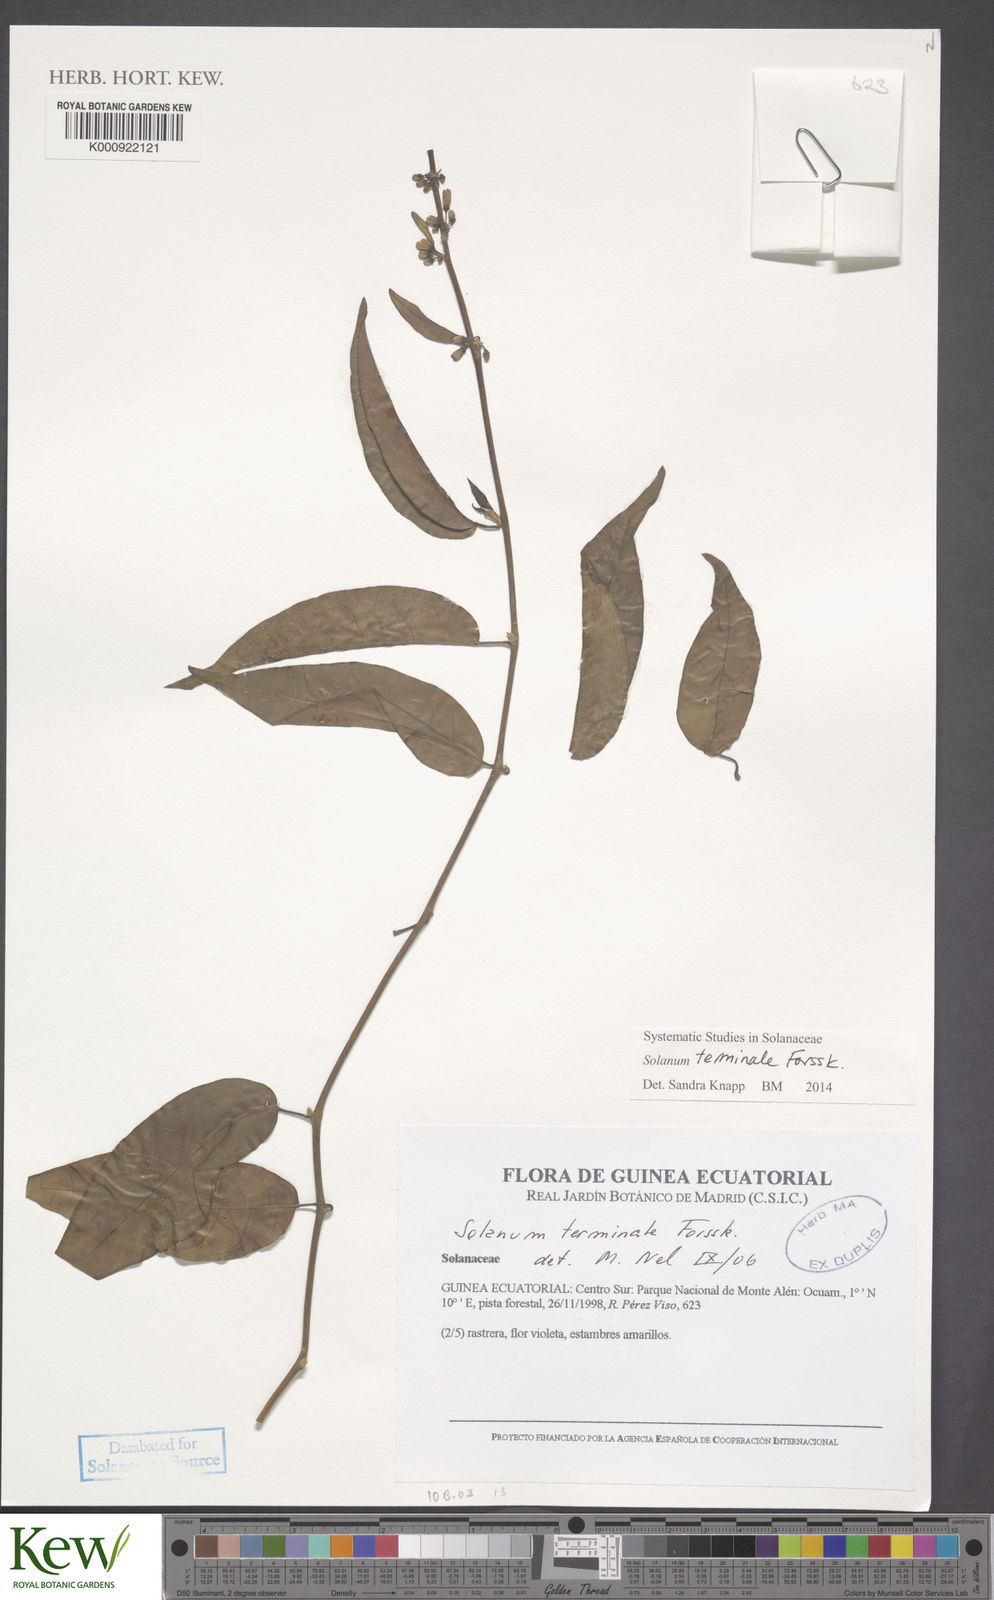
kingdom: Plantae
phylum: Tracheophyta
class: Magnoliopsida
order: Solanales
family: Solanaceae
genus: Solanum
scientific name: Solanum terminale
